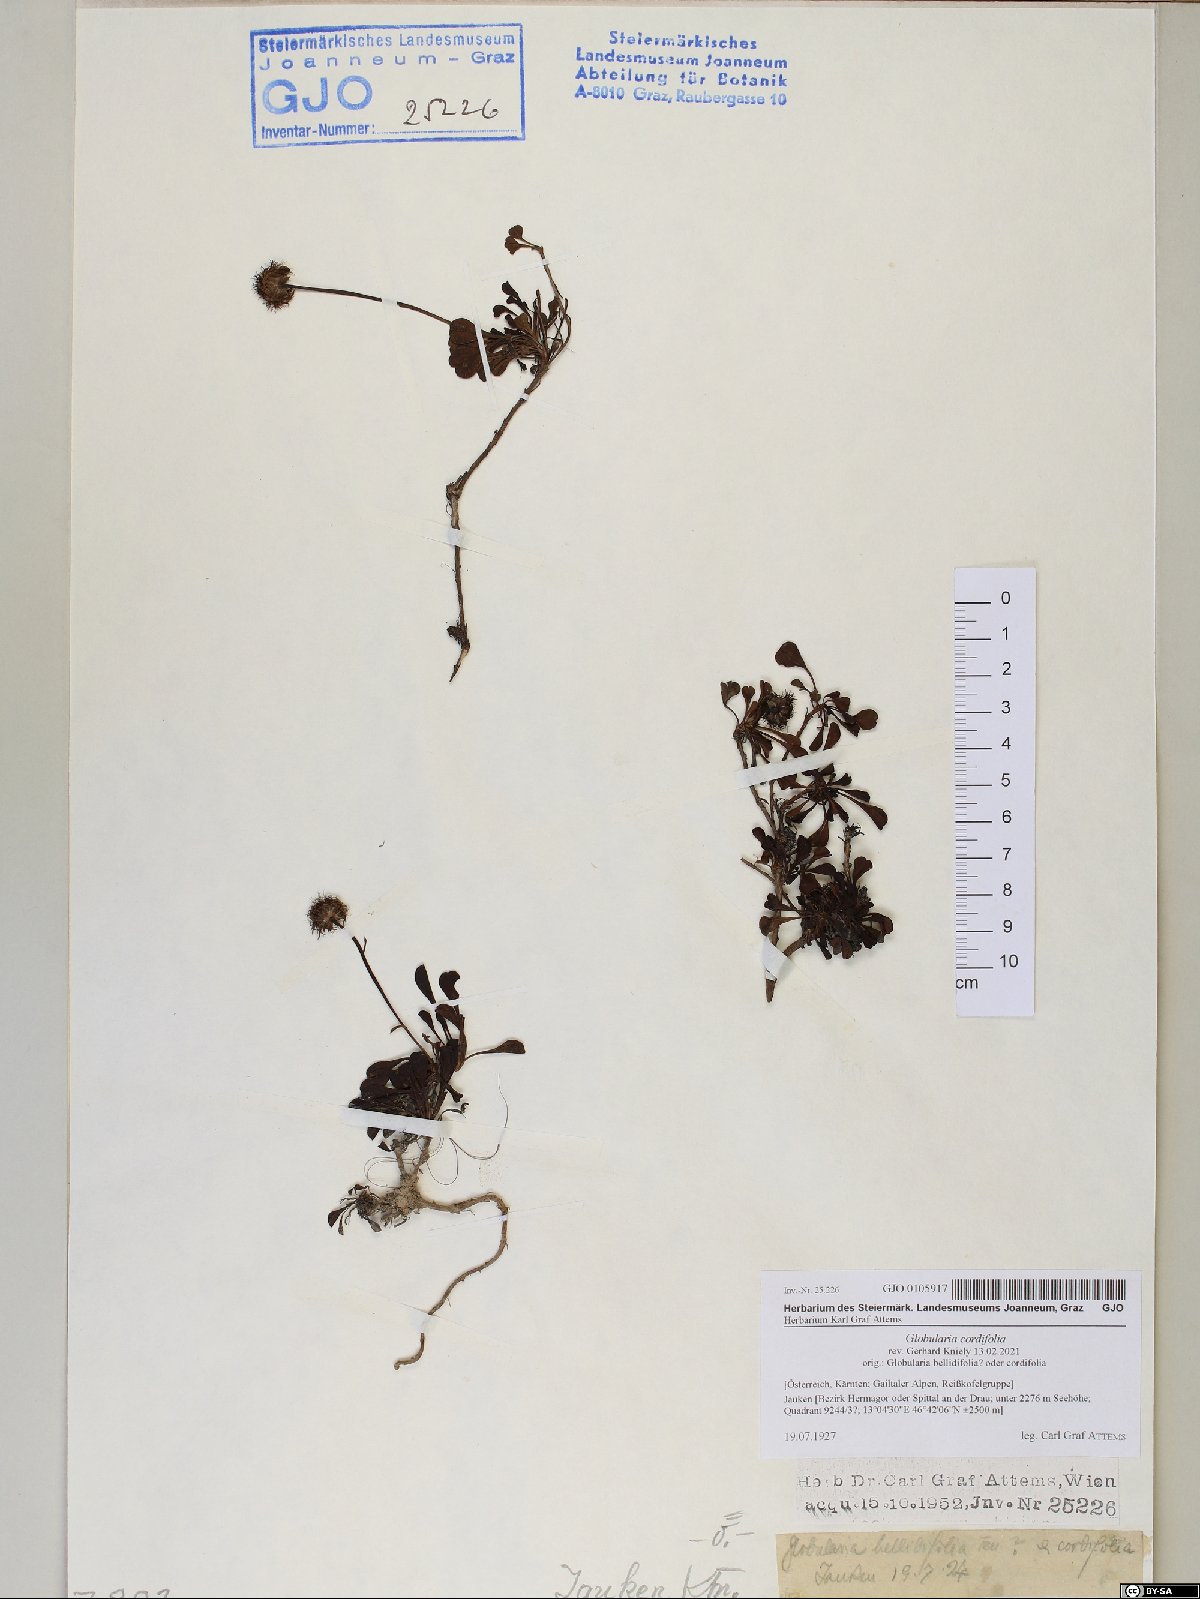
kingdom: Plantae
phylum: Tracheophyta
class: Magnoliopsida
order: Lamiales
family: Plantaginaceae
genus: Globularia
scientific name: Globularia cordifolia
